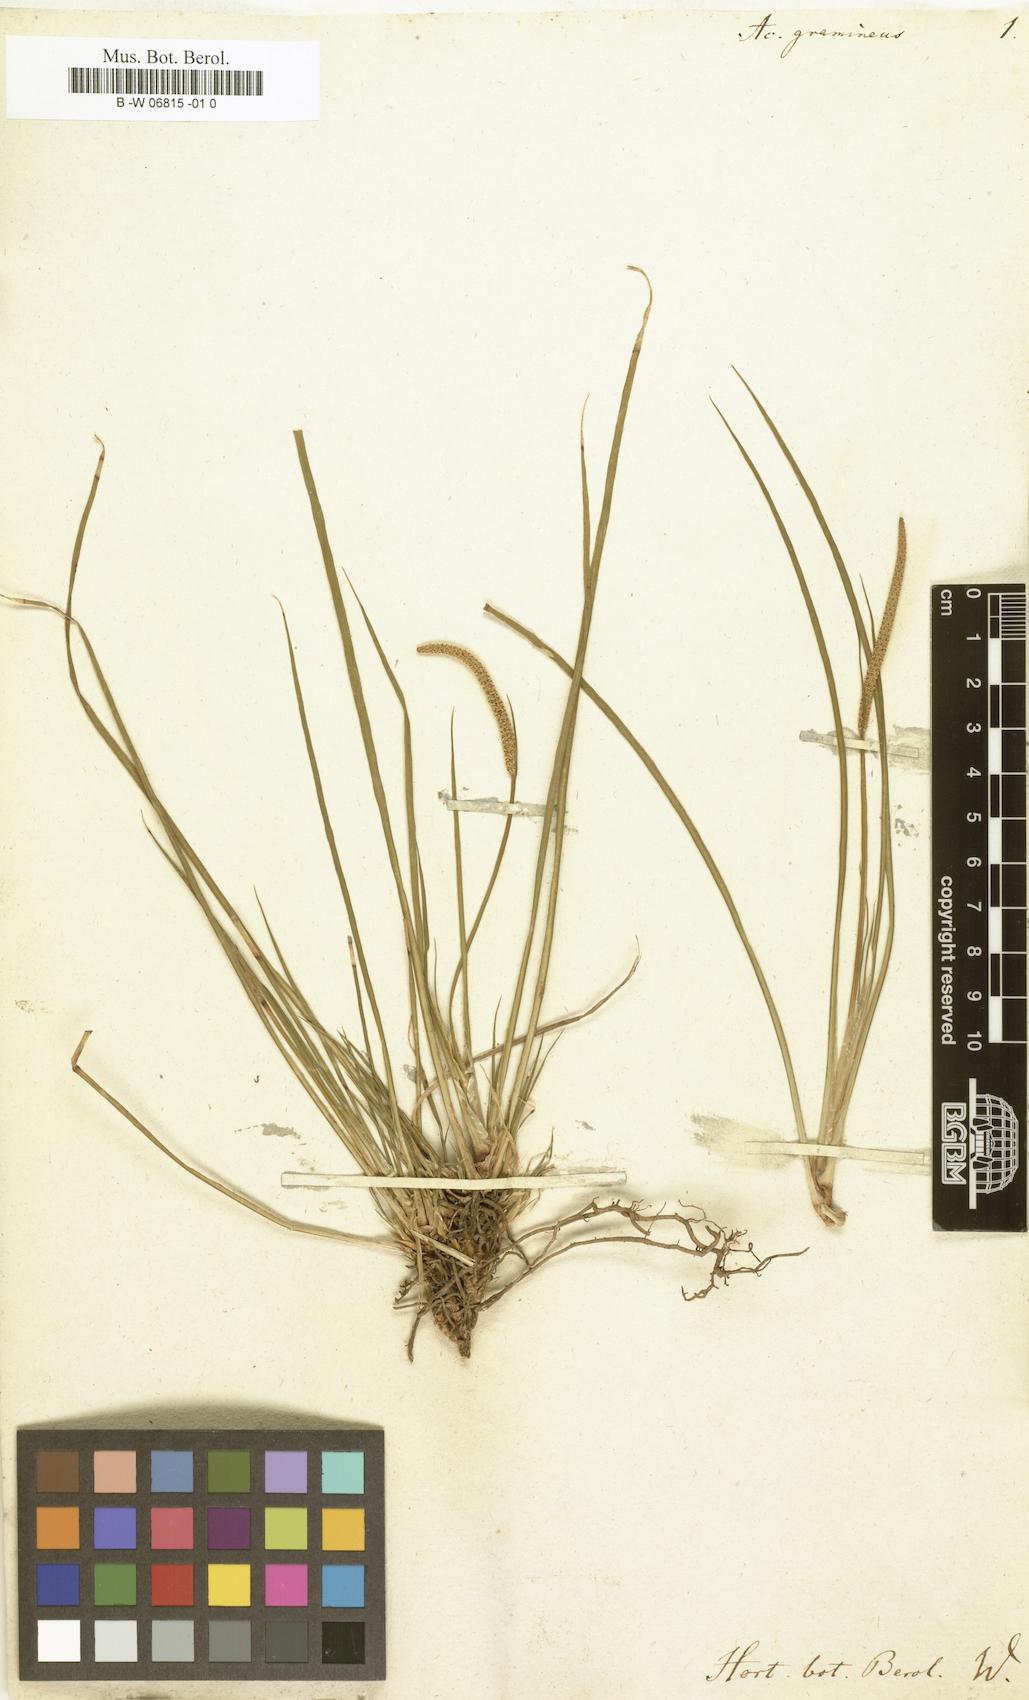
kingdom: Plantae
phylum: Tracheophyta
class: Liliopsida
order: Acorales
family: Acoraceae
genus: Acorus
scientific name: Acorus gramineus
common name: Slender sweet-flag
